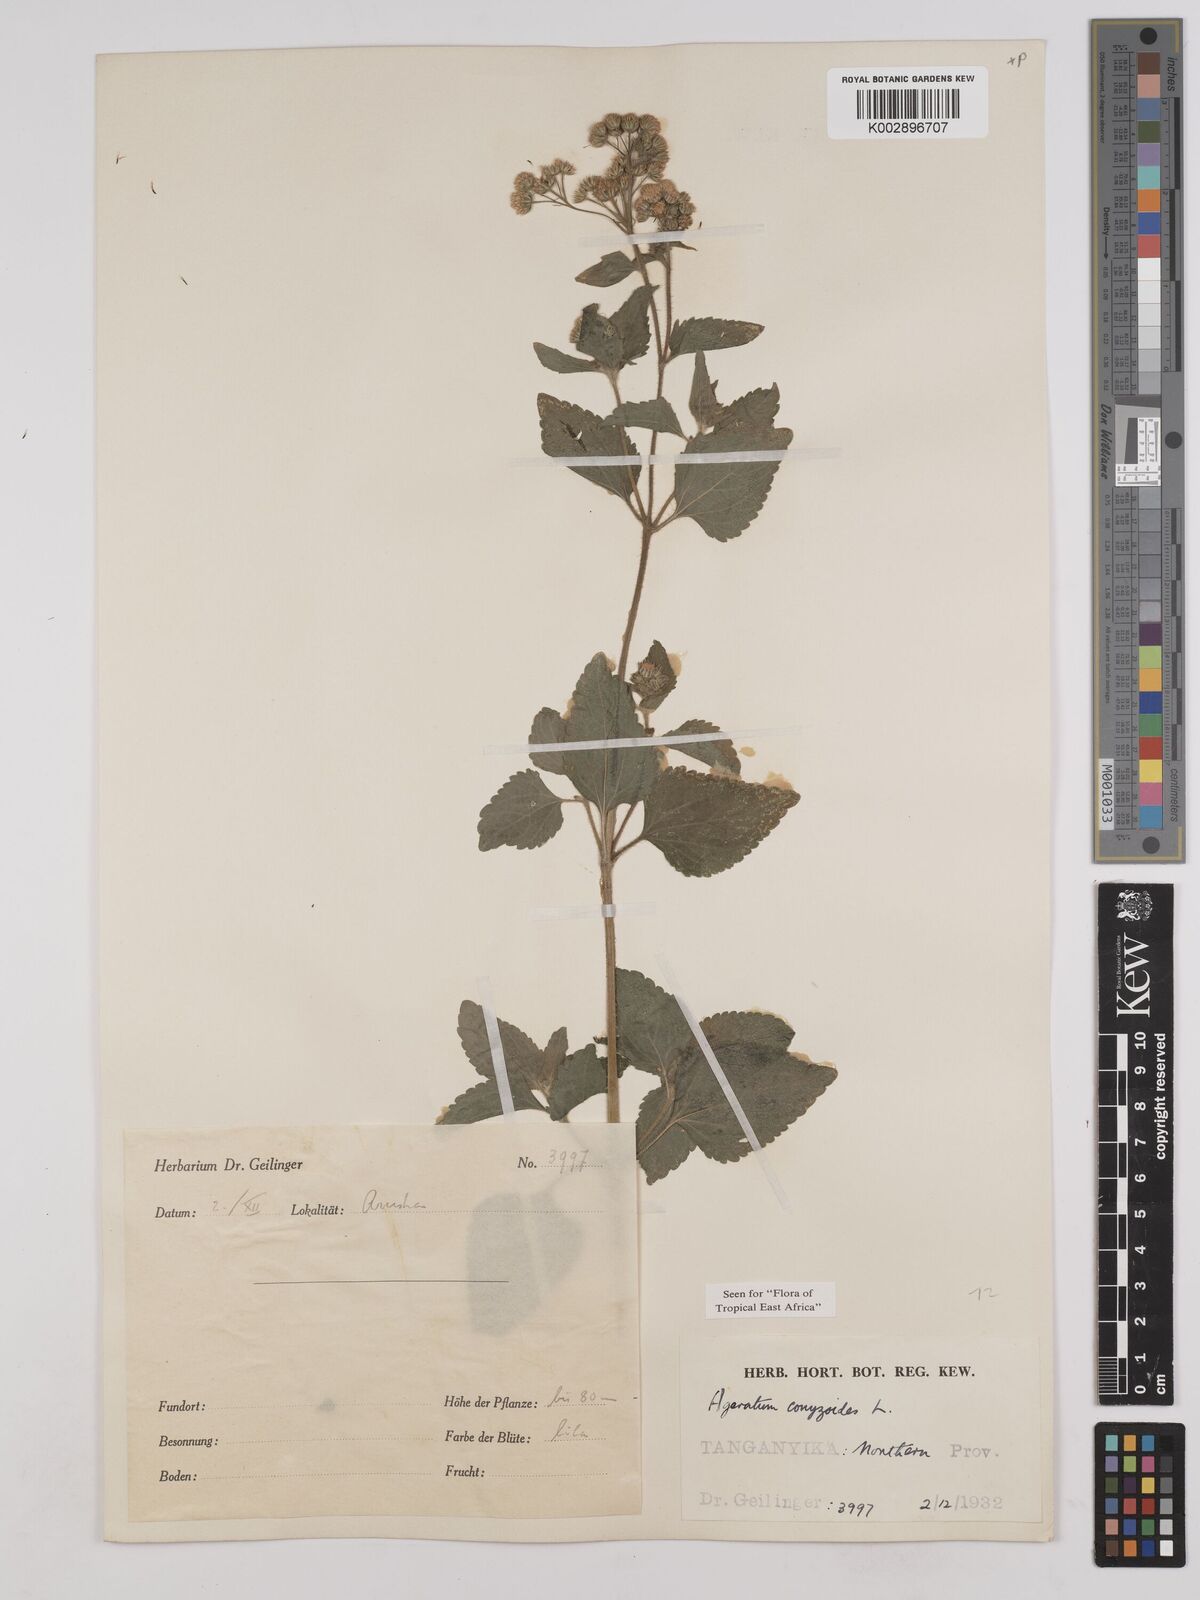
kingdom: Plantae
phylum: Tracheophyta
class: Magnoliopsida
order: Asterales
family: Asteraceae
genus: Ageratum
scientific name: Ageratum conyzoides
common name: Tropical whiteweed
